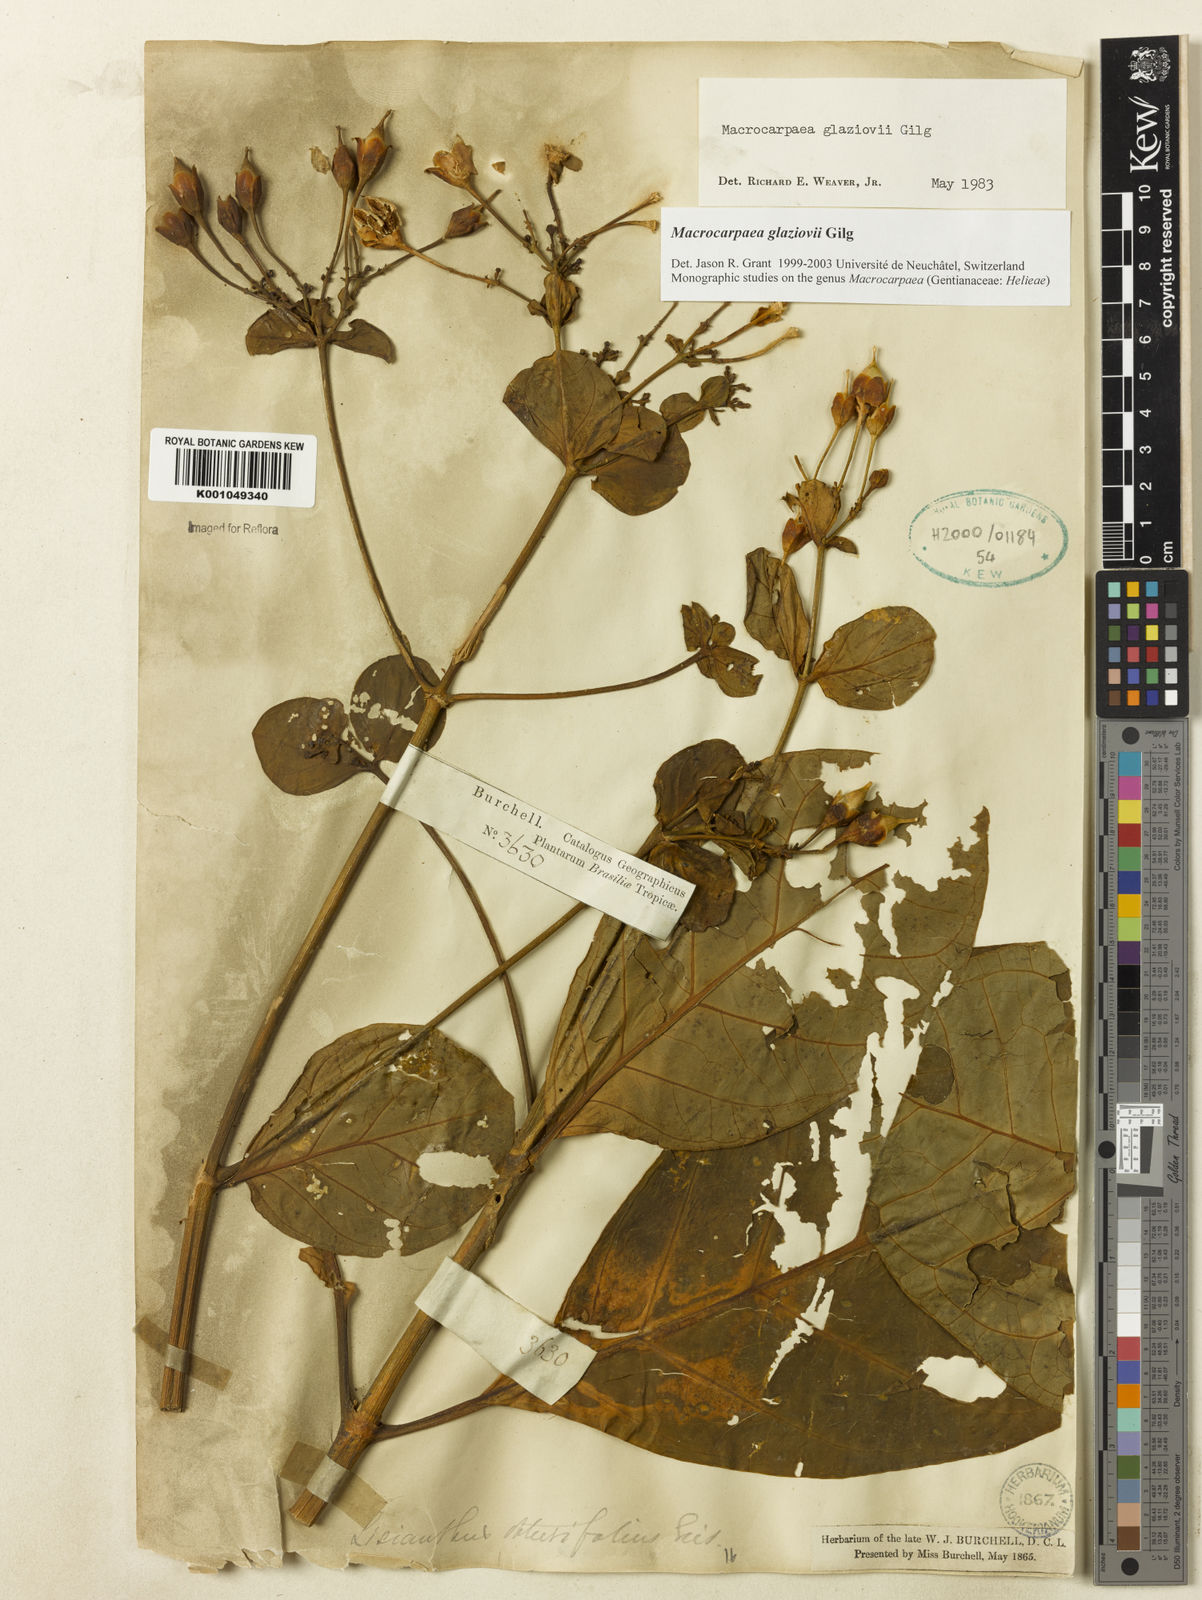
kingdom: Plantae
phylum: Tracheophyta
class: Magnoliopsida
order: Gentianales
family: Gentianaceae
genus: Macrocarpaea
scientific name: Macrocarpaea glaziovii
